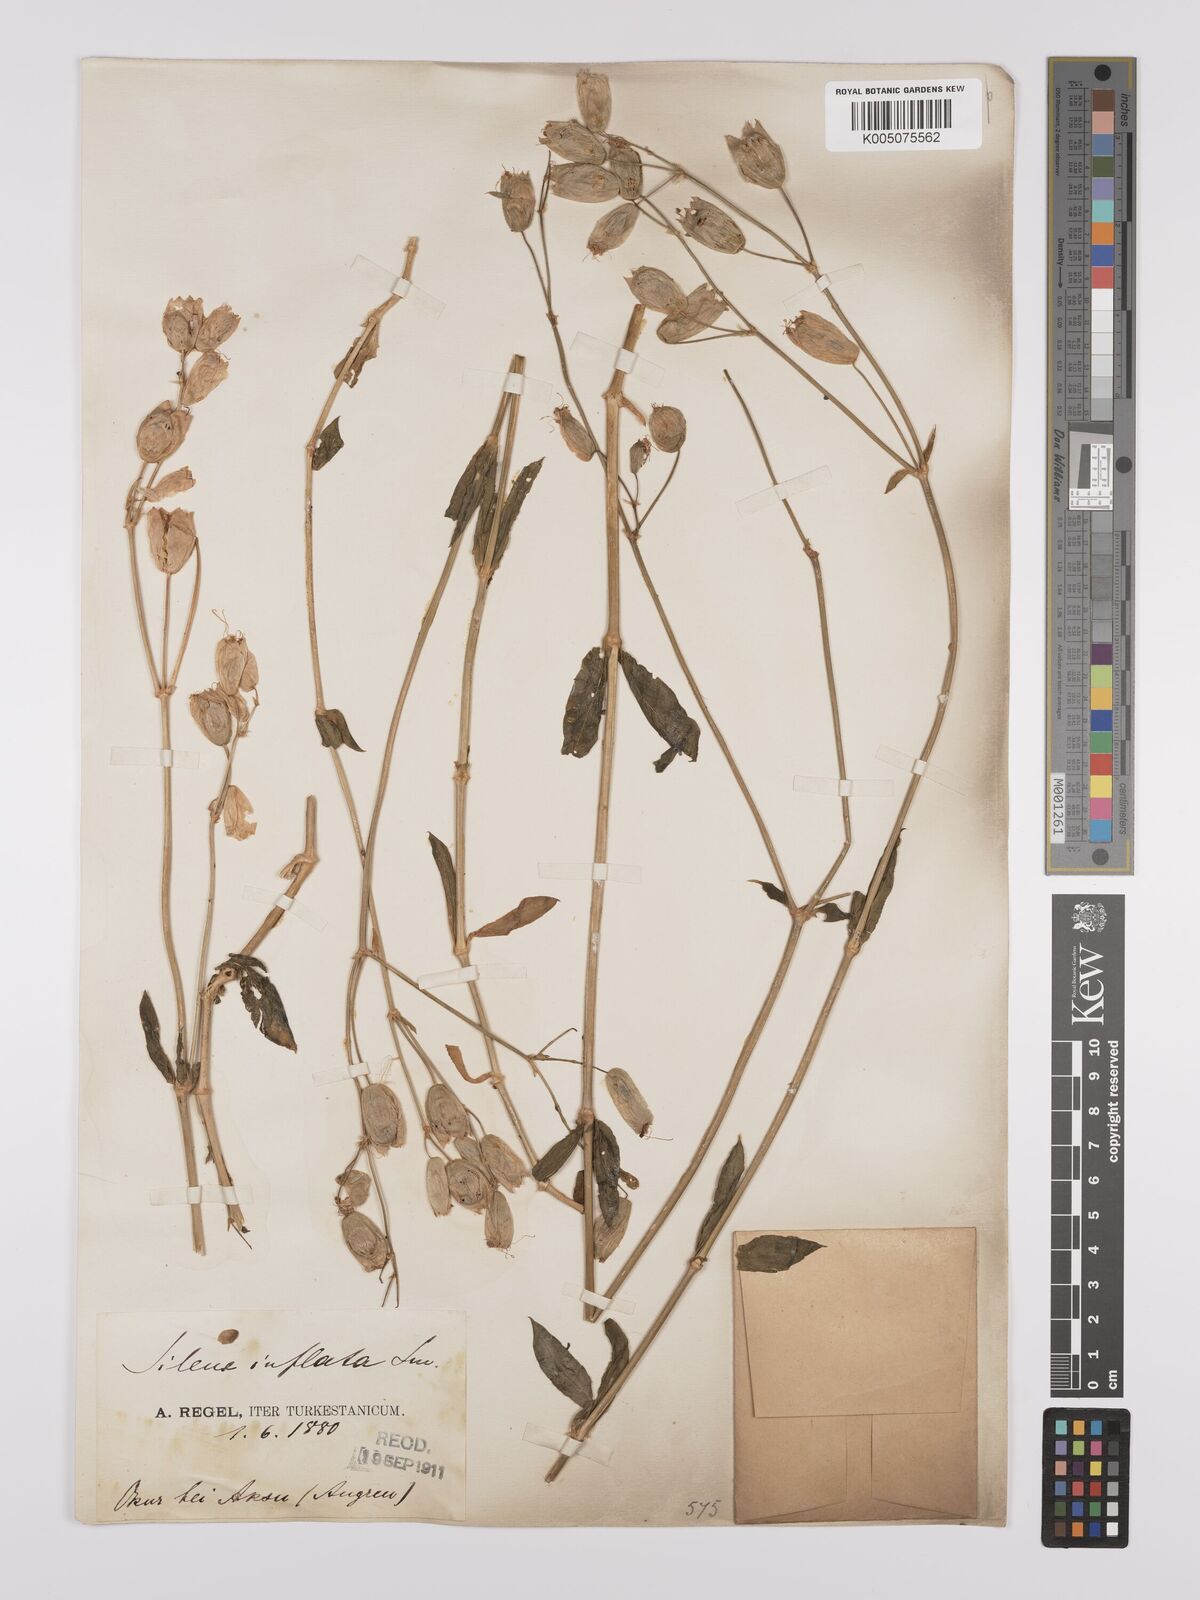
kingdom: Plantae
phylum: Tracheophyta
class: Magnoliopsida
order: Caryophyllales
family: Caryophyllaceae
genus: Silene
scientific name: Silene vulgaris
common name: Bladder campion
